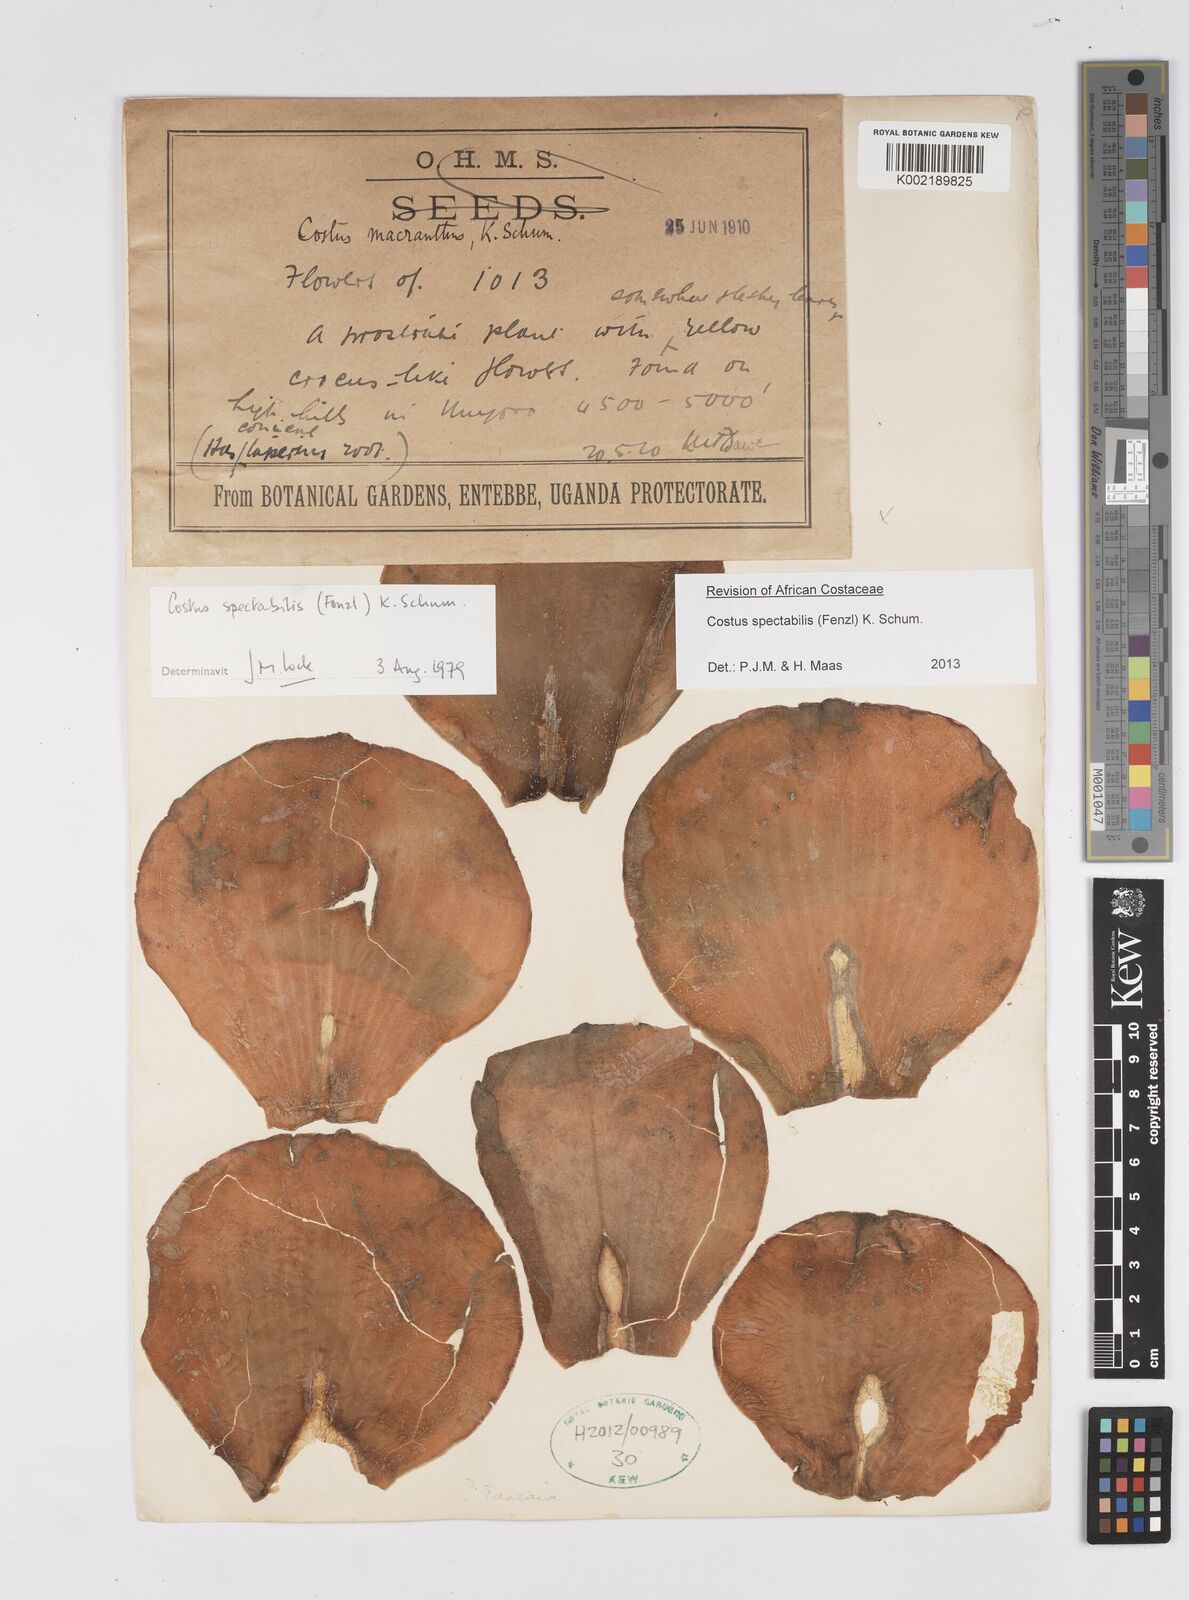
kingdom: Plantae
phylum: Tracheophyta
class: Liliopsida
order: Zingiberales
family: Costaceae
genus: Costus
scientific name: Costus spectabilis
